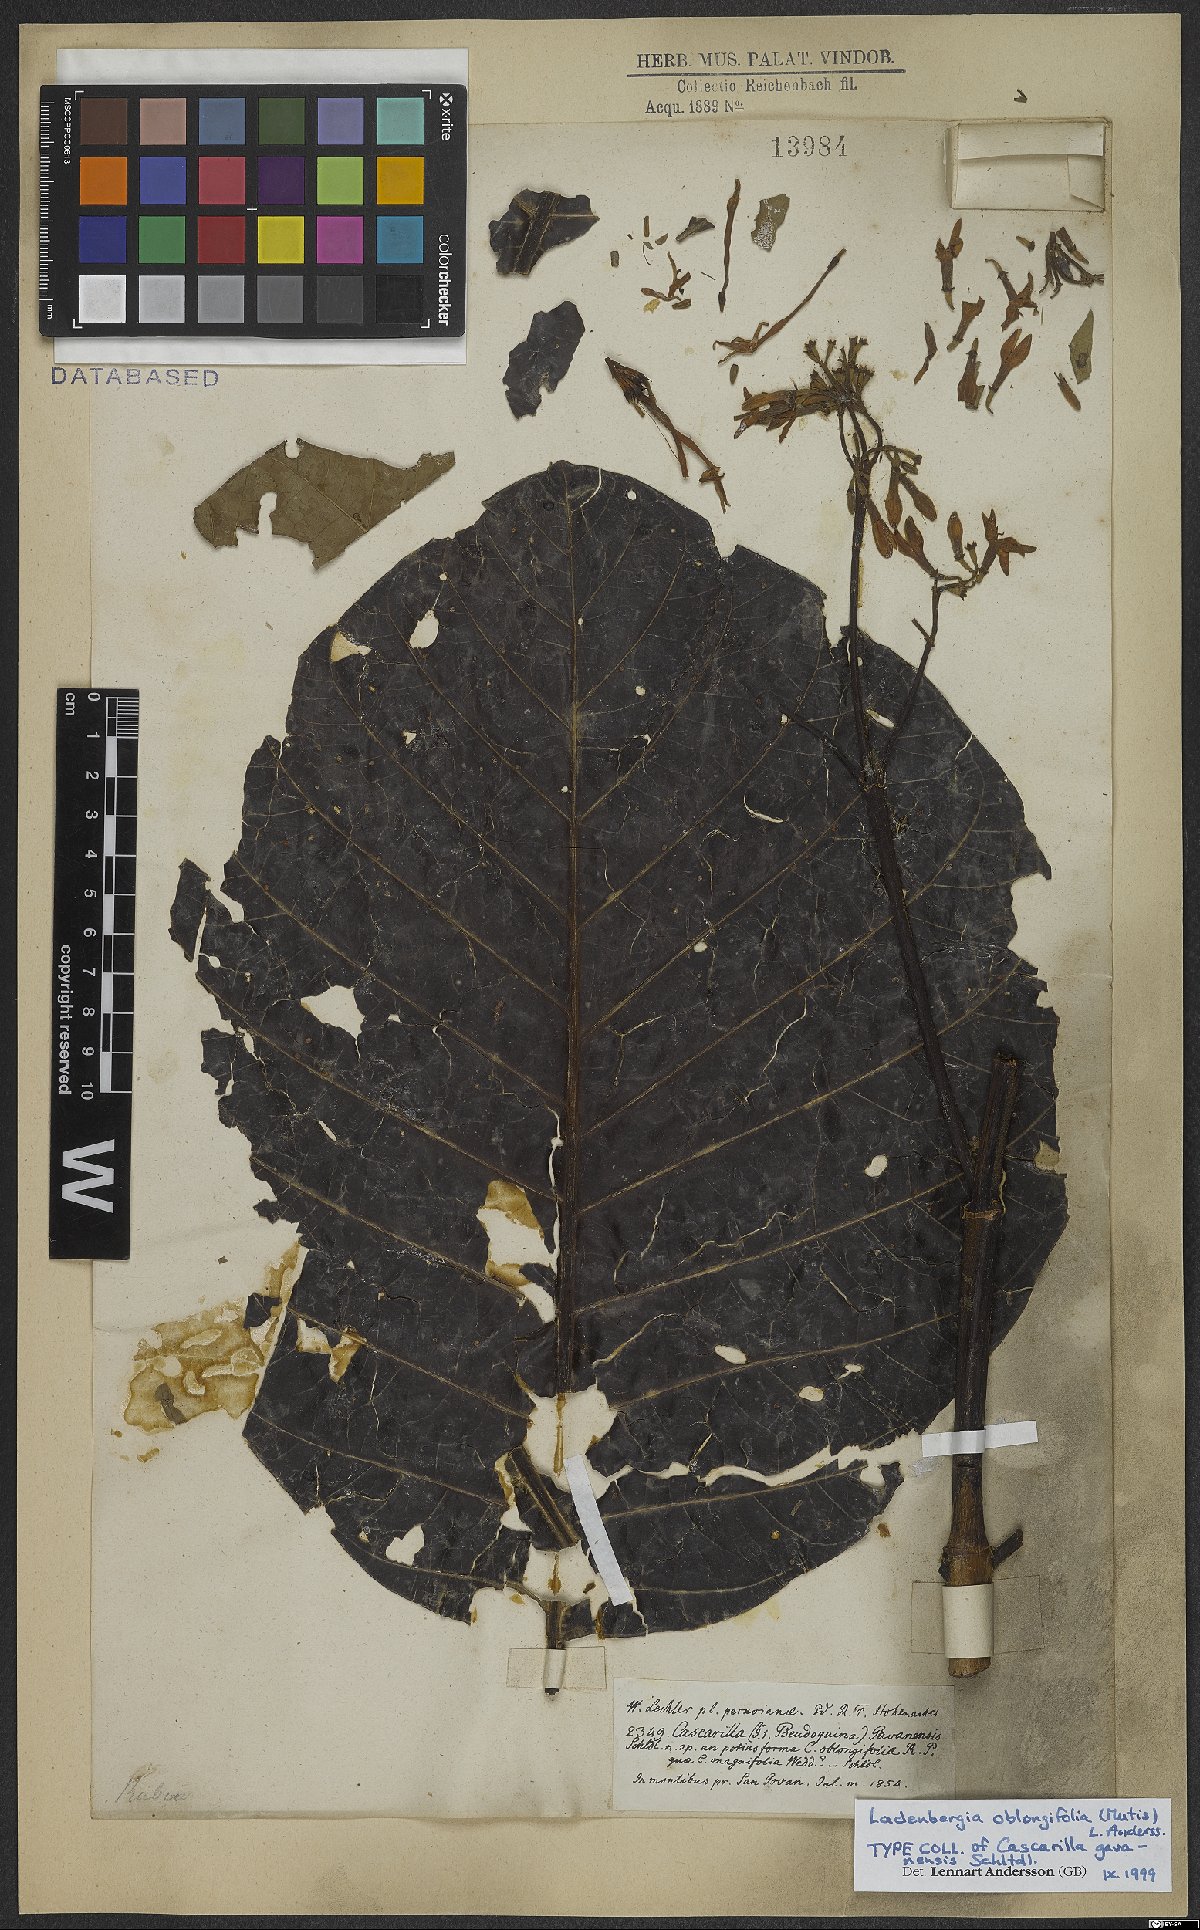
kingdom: Plantae
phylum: Tracheophyta
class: Magnoliopsida
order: Gentianales
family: Rubiaceae
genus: Ladenbergia
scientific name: Ladenbergia oblongifolia
